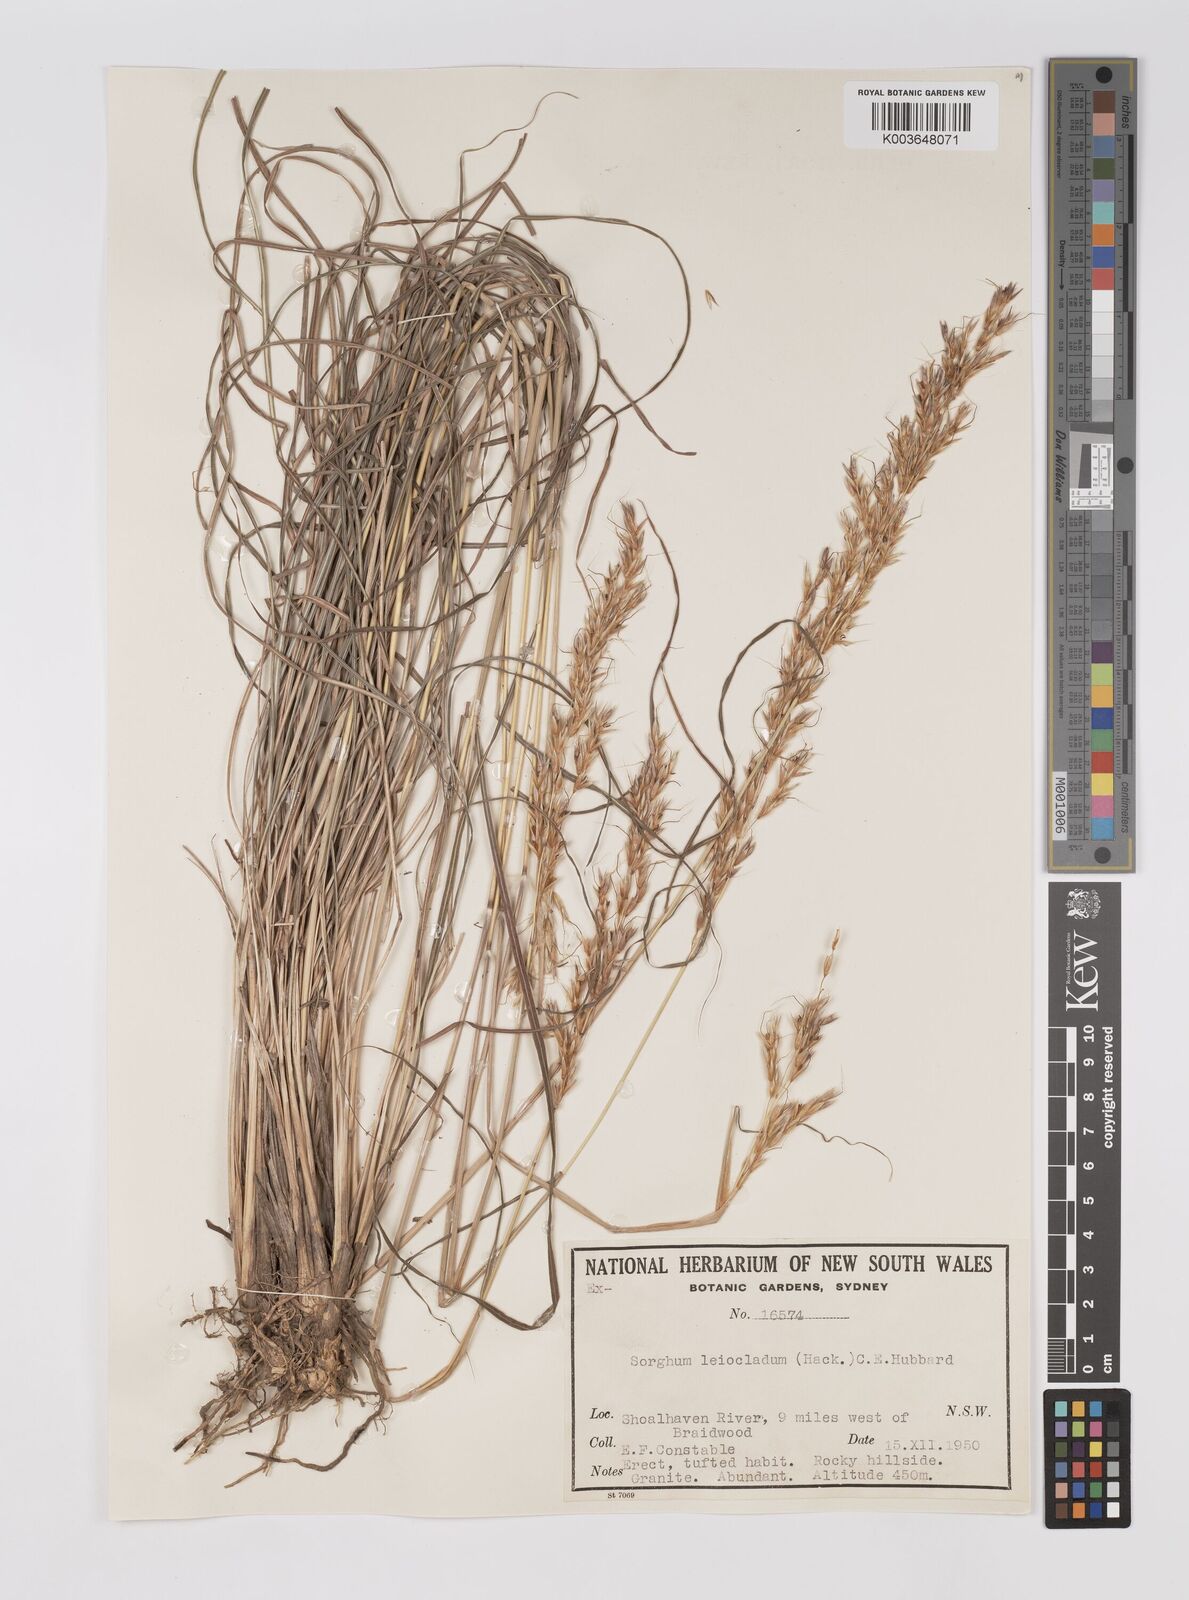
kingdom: Plantae
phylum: Tracheophyta
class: Liliopsida
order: Poales
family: Poaceae
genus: Sarga
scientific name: Sarga leioclada
